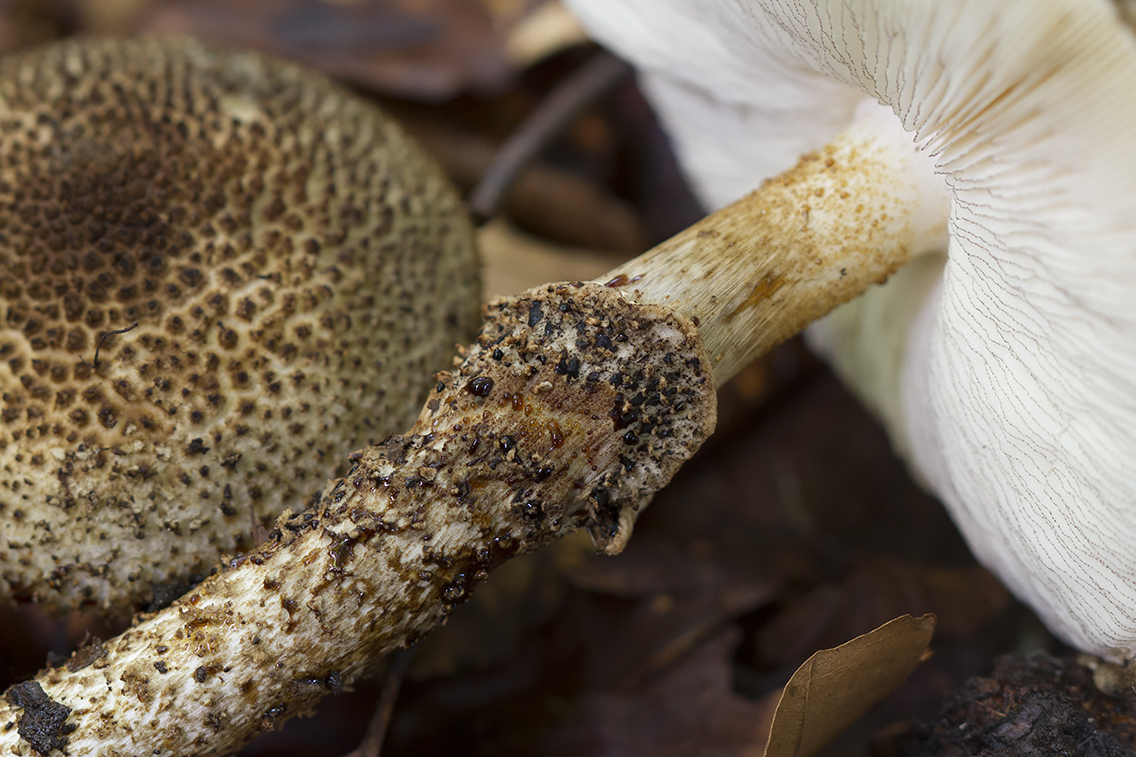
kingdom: Fungi
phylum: Basidiomycota
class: Agaricomycetes
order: Agaricales
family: Agaricaceae
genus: Echinoderma
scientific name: Echinoderma hystrix
